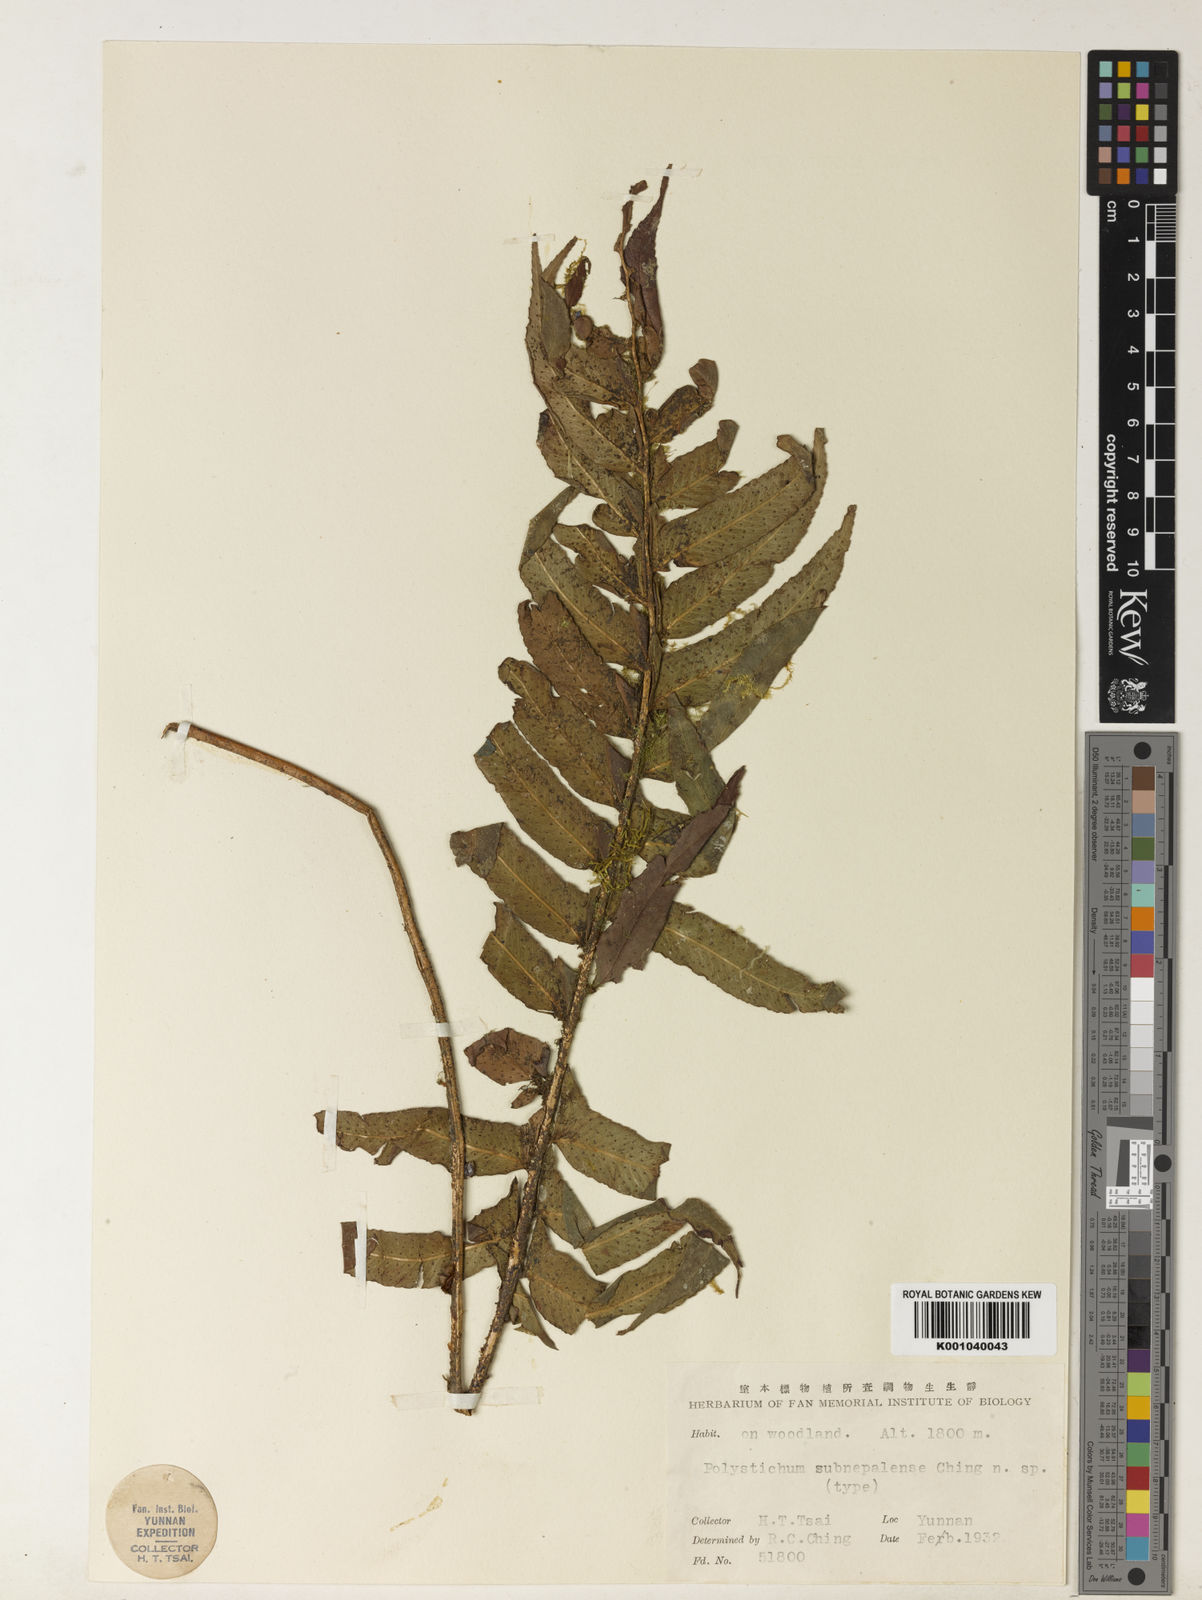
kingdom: Plantae
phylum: Tracheophyta
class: Polypodiopsida
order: Polypodiales
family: Dryopteridaceae
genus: Polystichum
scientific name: Polystichum
